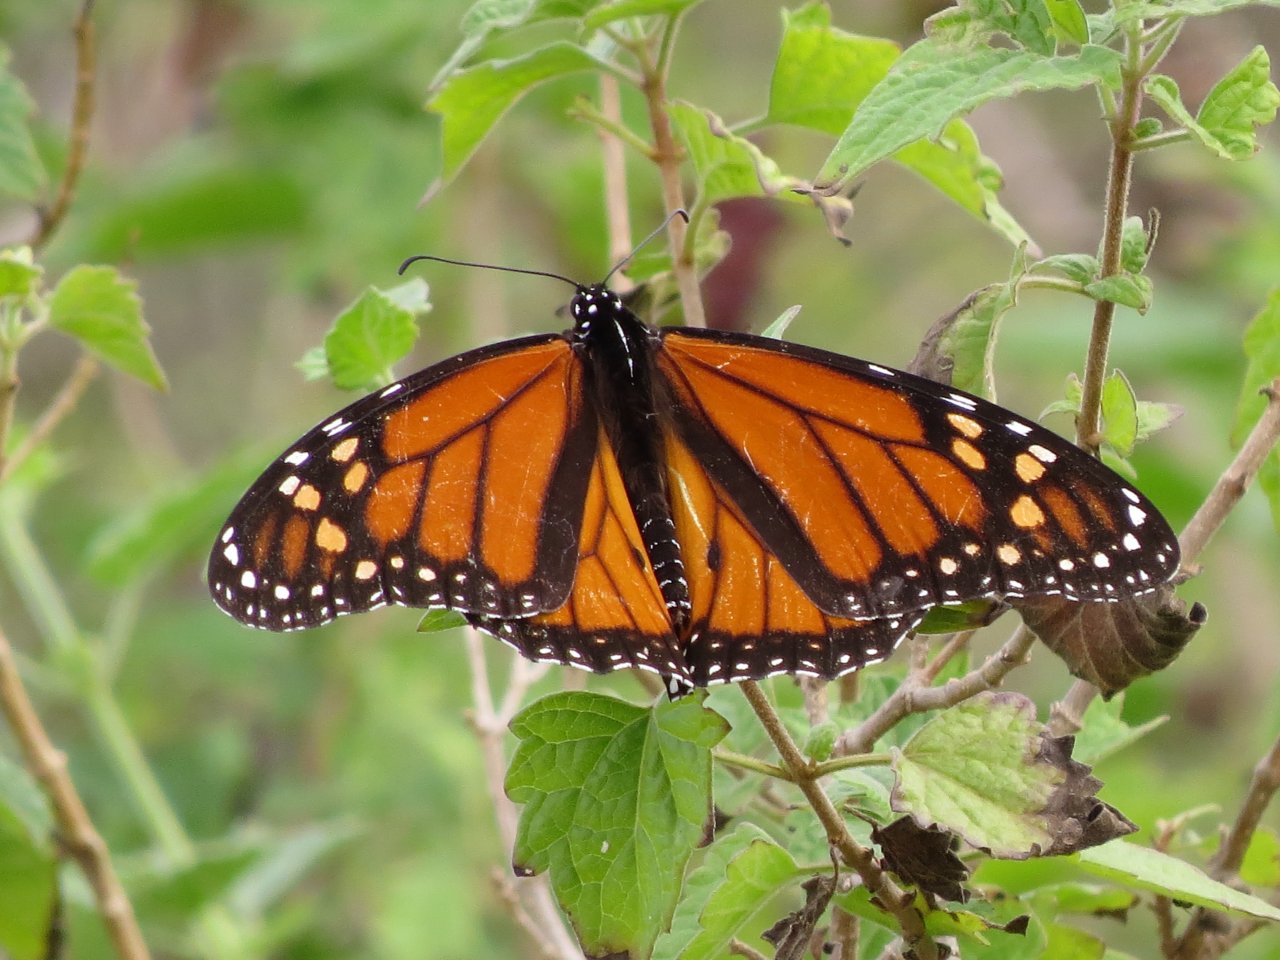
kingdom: Animalia
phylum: Arthropoda
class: Insecta
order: Lepidoptera
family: Nymphalidae
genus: Danaus
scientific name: Danaus plexippus
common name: Monarch
